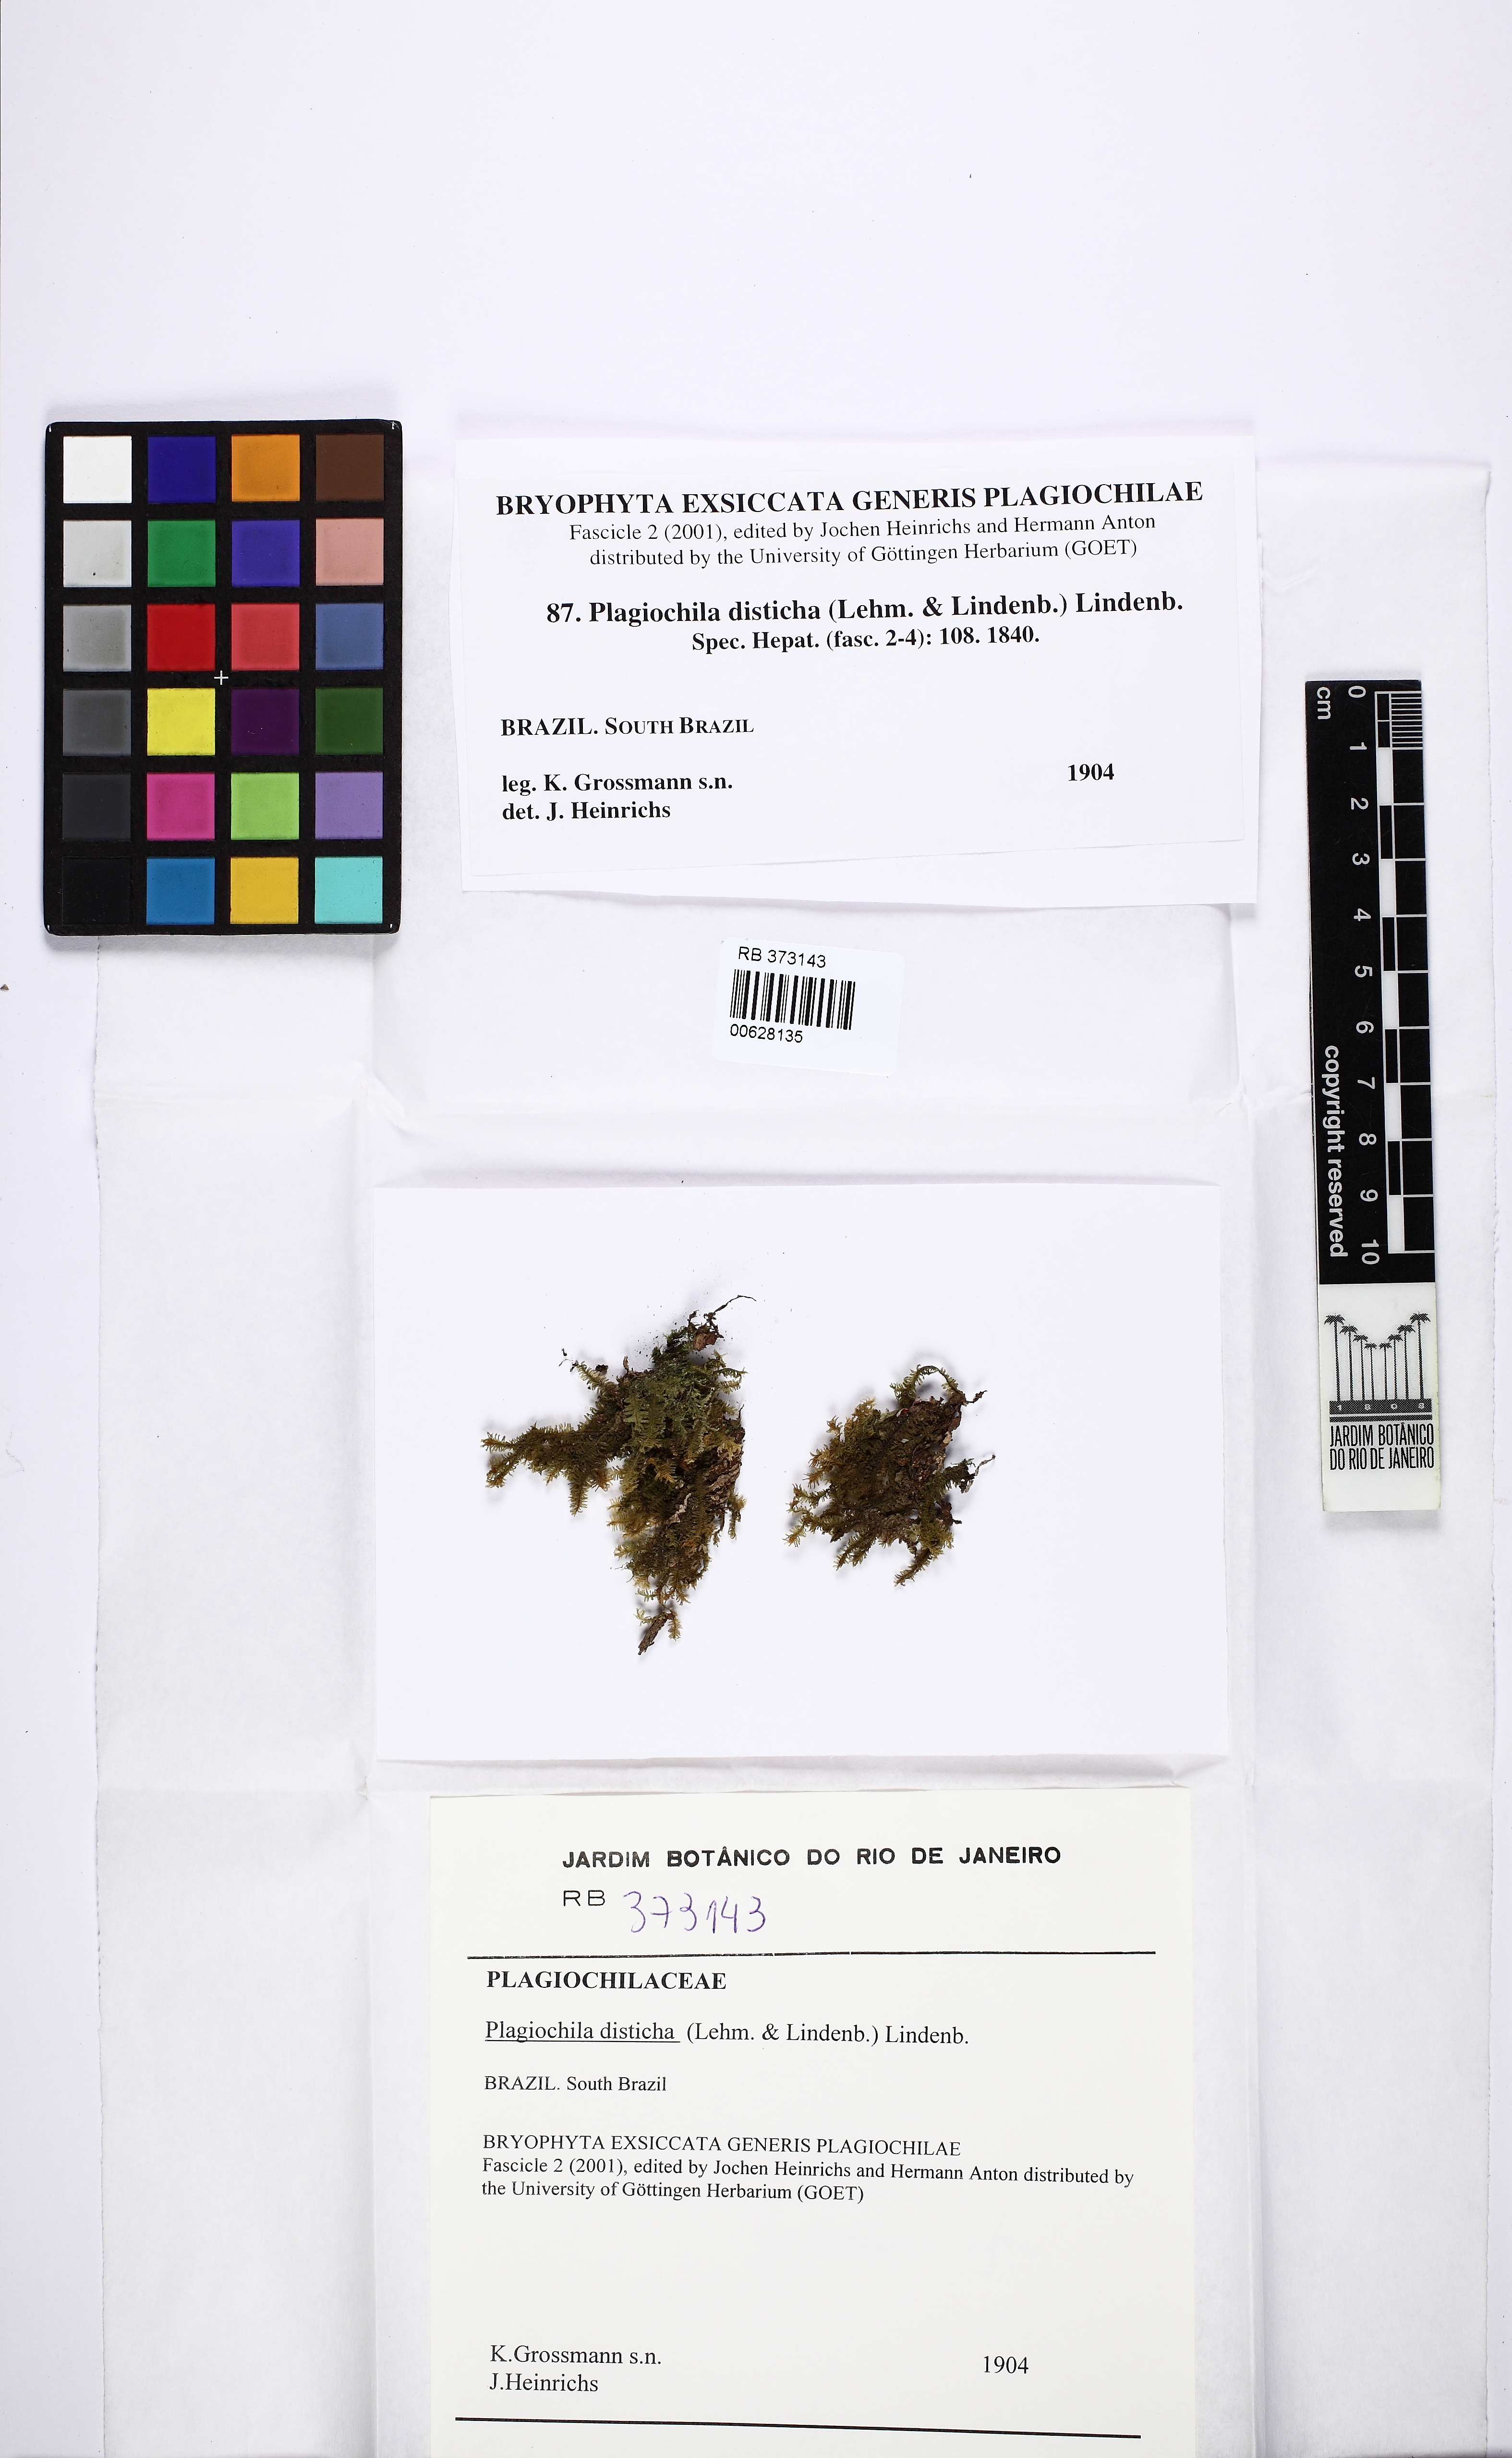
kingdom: Plantae
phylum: Marchantiophyta
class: Jungermanniopsida
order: Jungermanniales
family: Plagiochilaceae
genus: Plagiochila
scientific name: Plagiochila disticha
